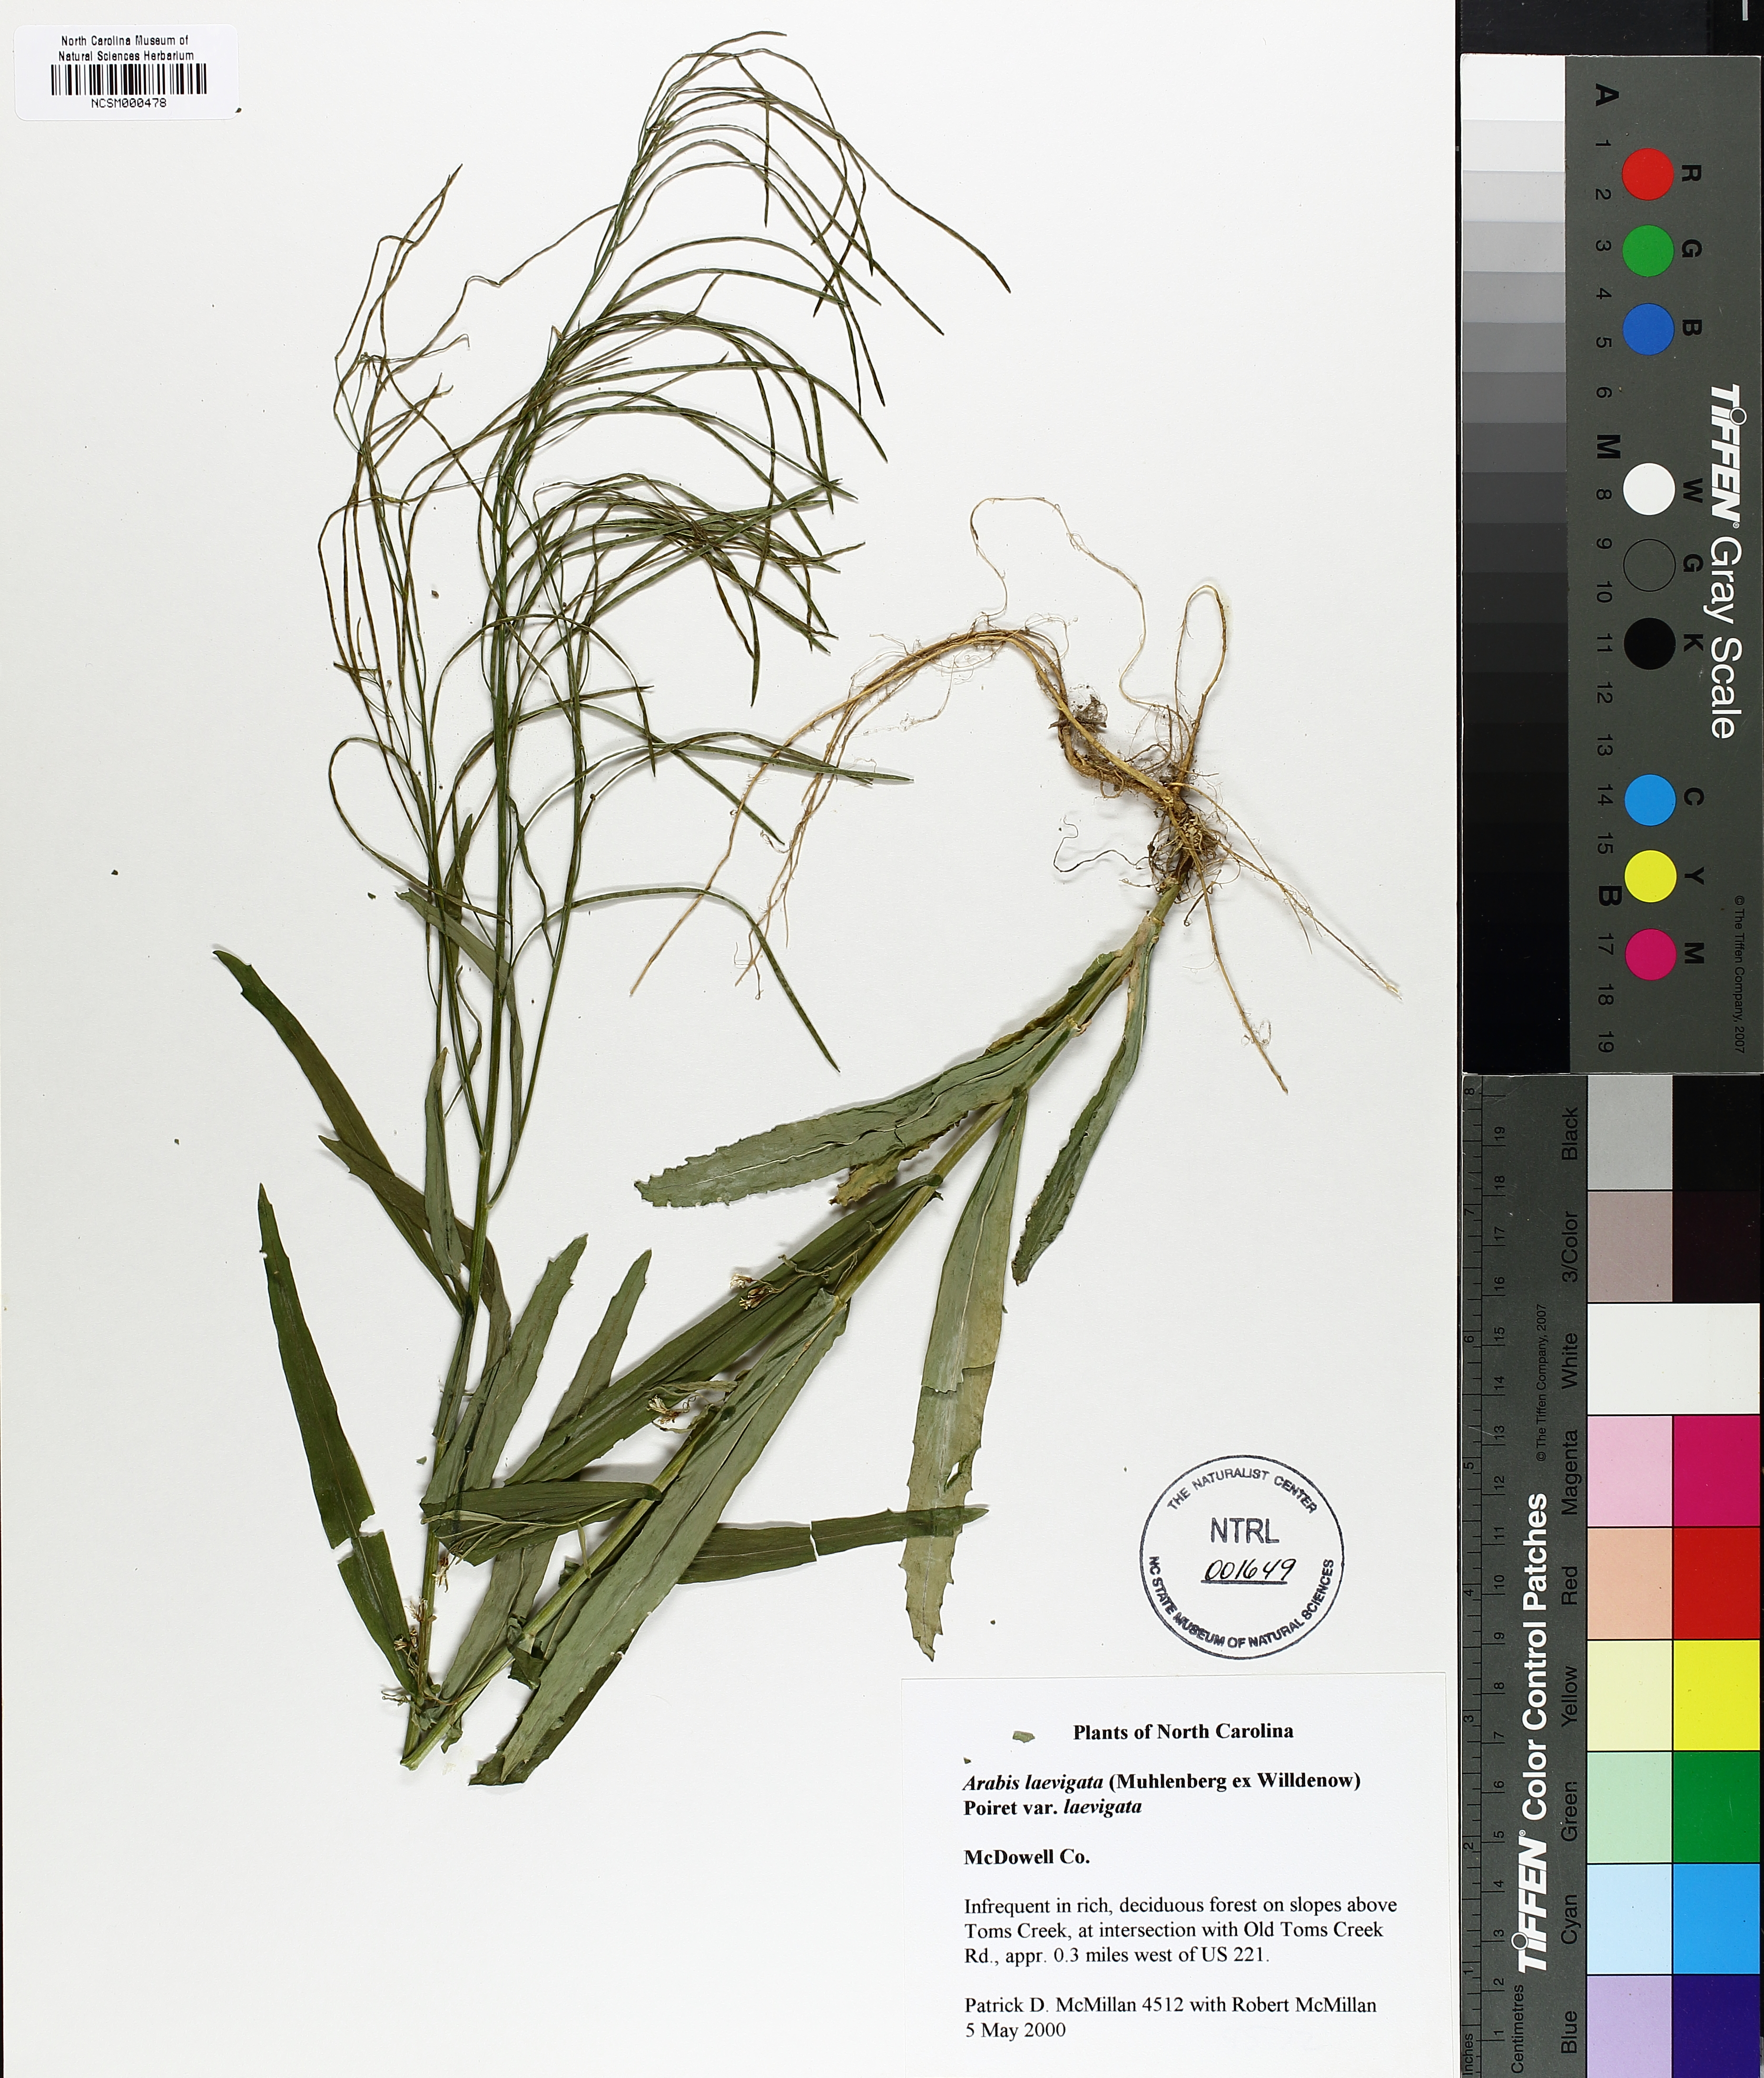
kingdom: Plantae
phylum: Tracheophyta
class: Magnoliopsida
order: Brassicales
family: Brassicaceae
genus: Borodinia
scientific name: Borodinia laevigata
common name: Smooth rockcress
